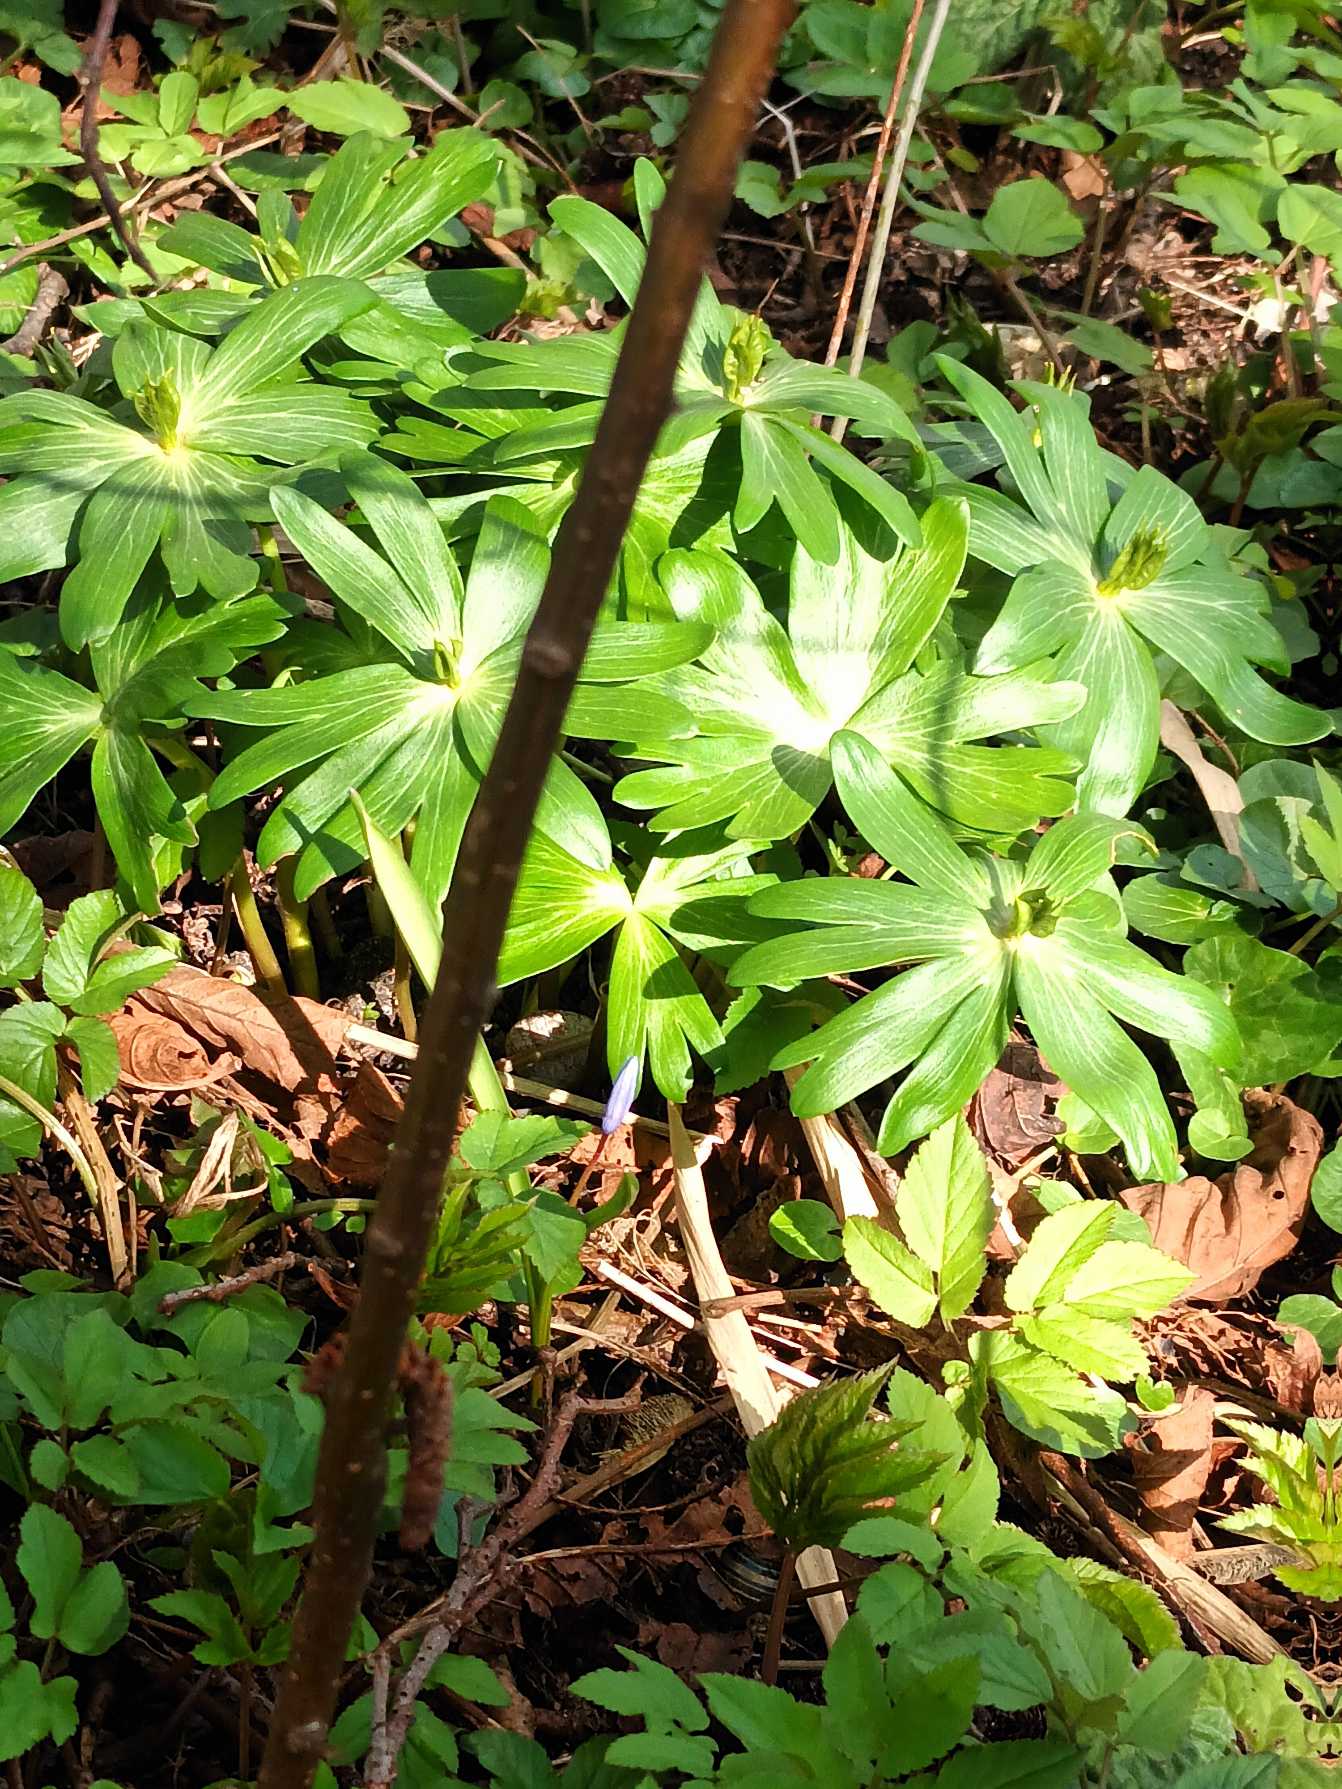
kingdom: Plantae
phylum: Tracheophyta
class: Magnoliopsida
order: Ranunculales
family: Ranunculaceae
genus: Eranthis
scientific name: Eranthis hyemalis
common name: Erantis
